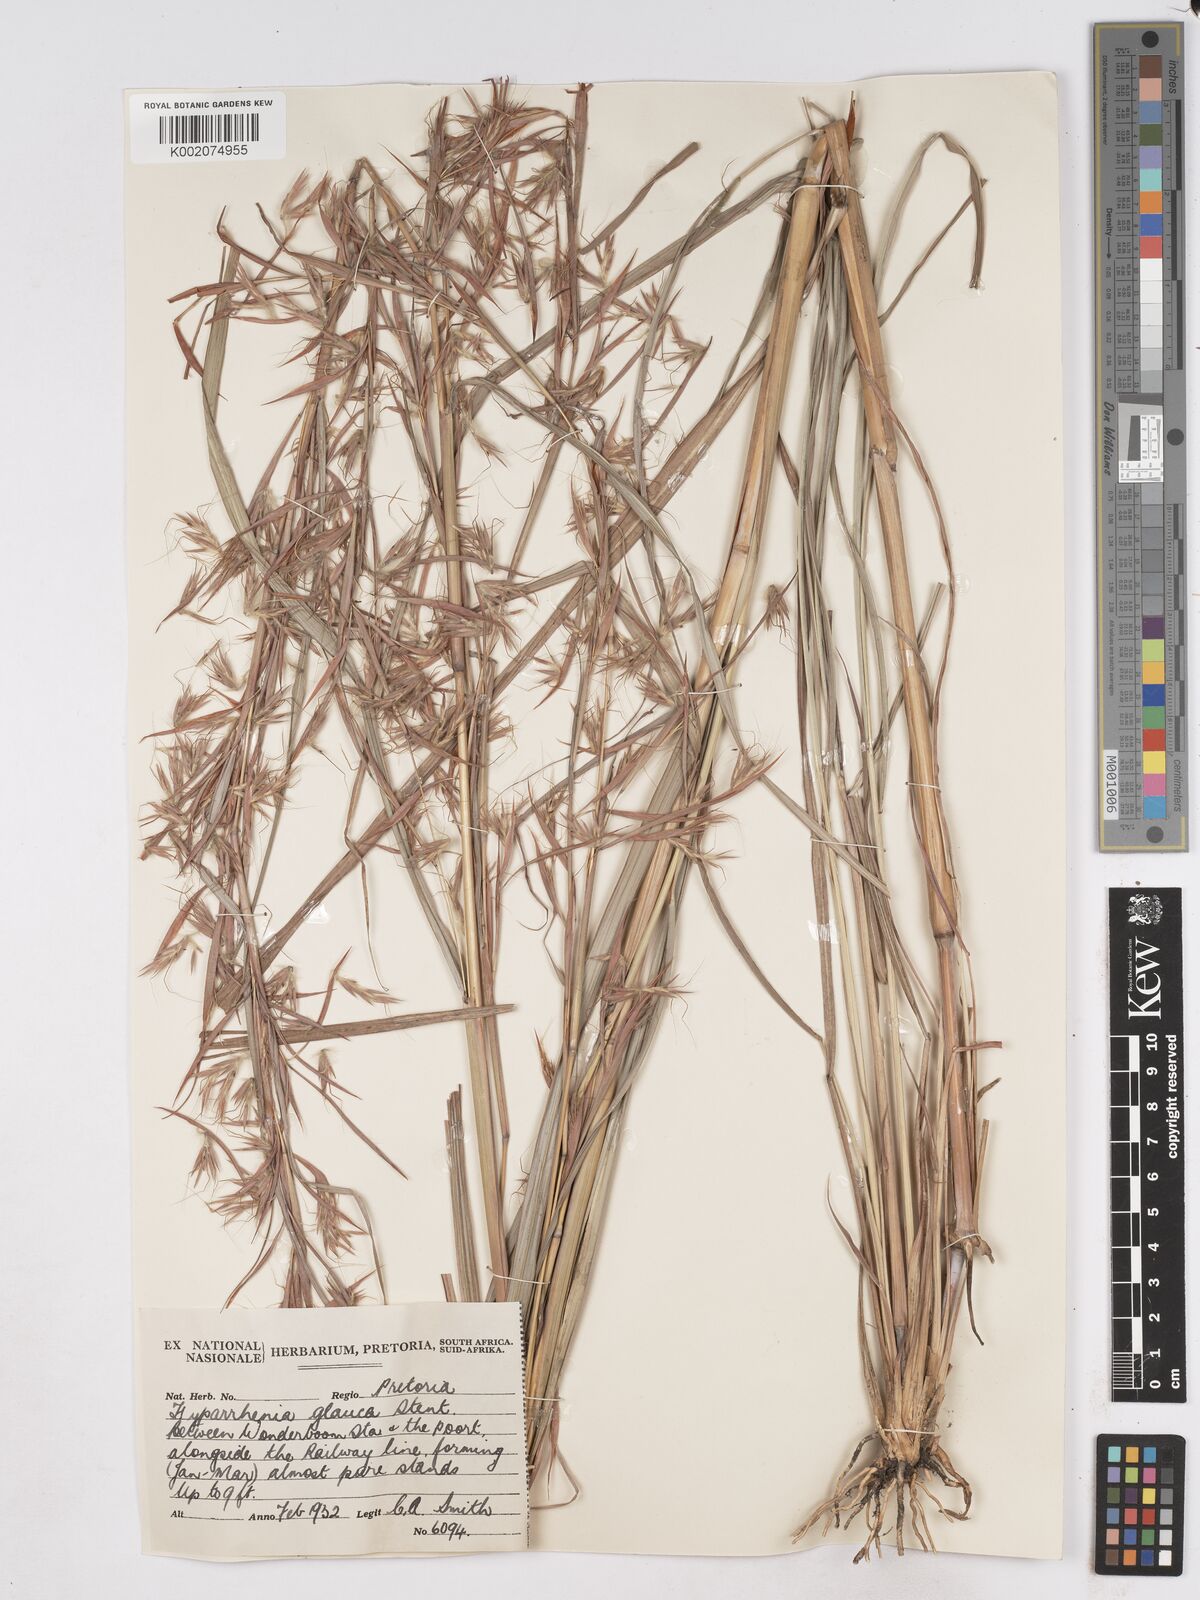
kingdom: Plantae
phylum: Tracheophyta
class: Liliopsida
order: Poales
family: Poaceae
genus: Hyparrhenia
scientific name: Hyparrhenia tamba
